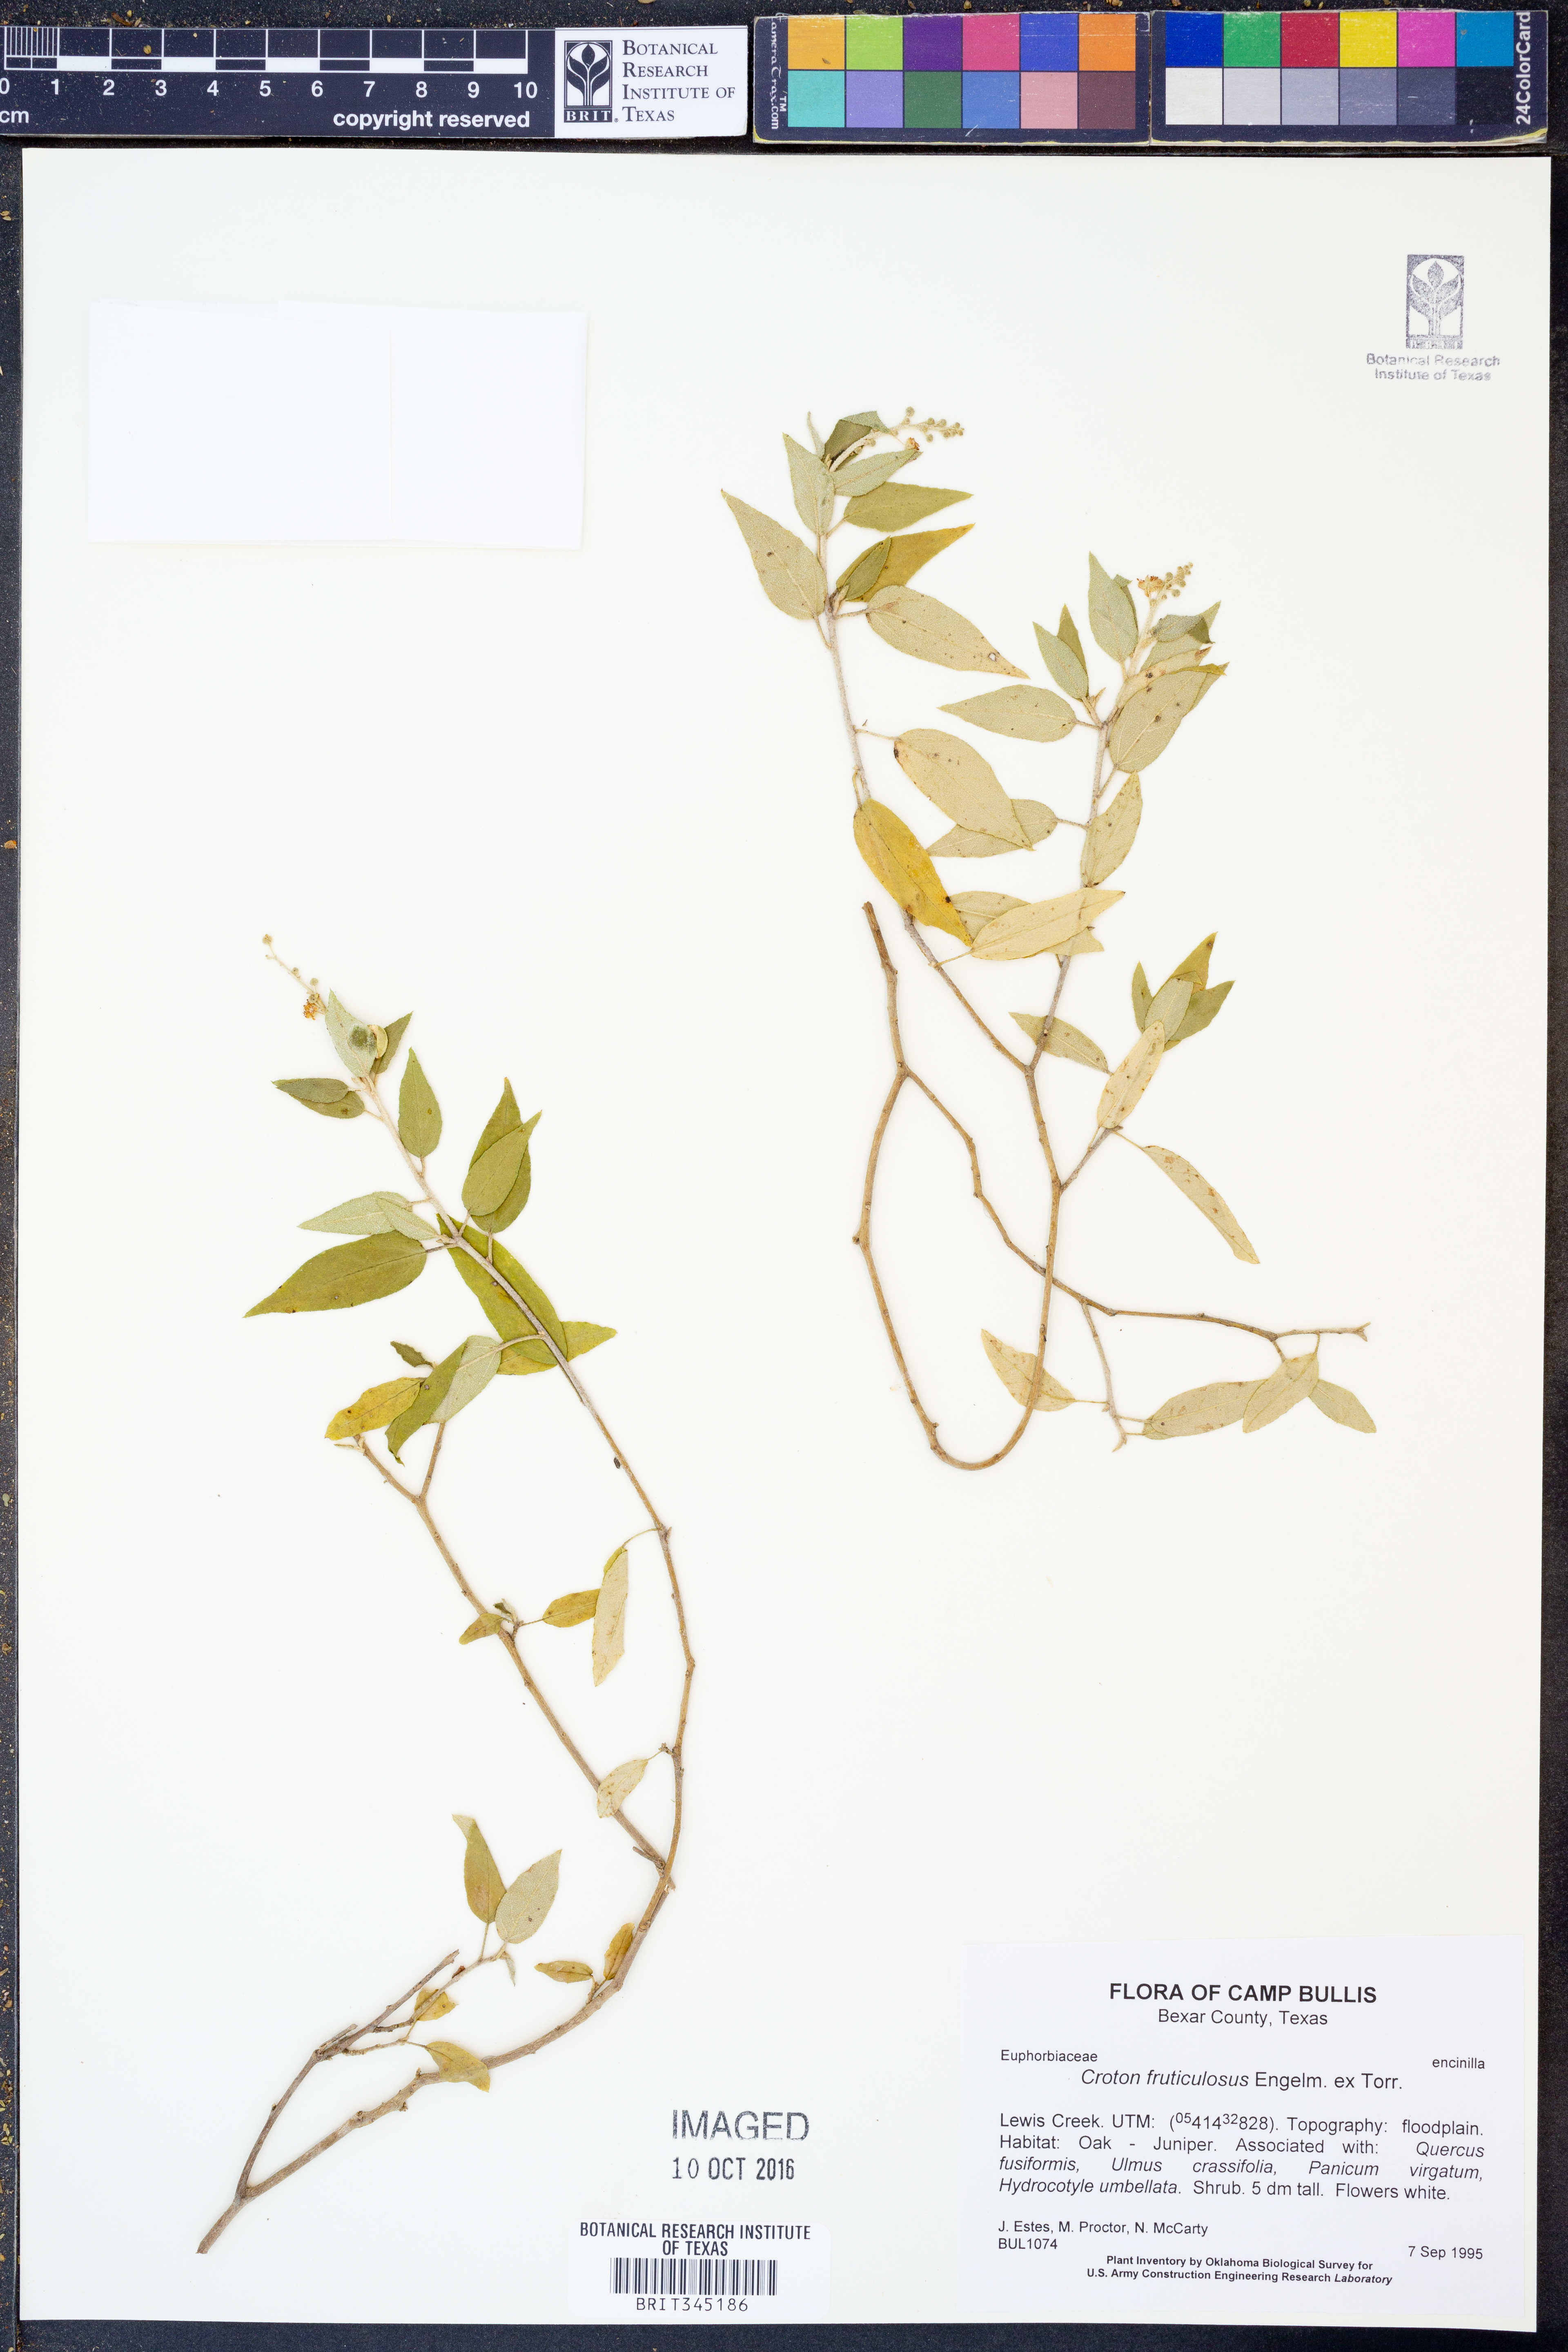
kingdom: Plantae
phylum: Tracheophyta
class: Magnoliopsida
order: Malpighiales
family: Euphorbiaceae
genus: Croton
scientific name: Croton fruticulosus
